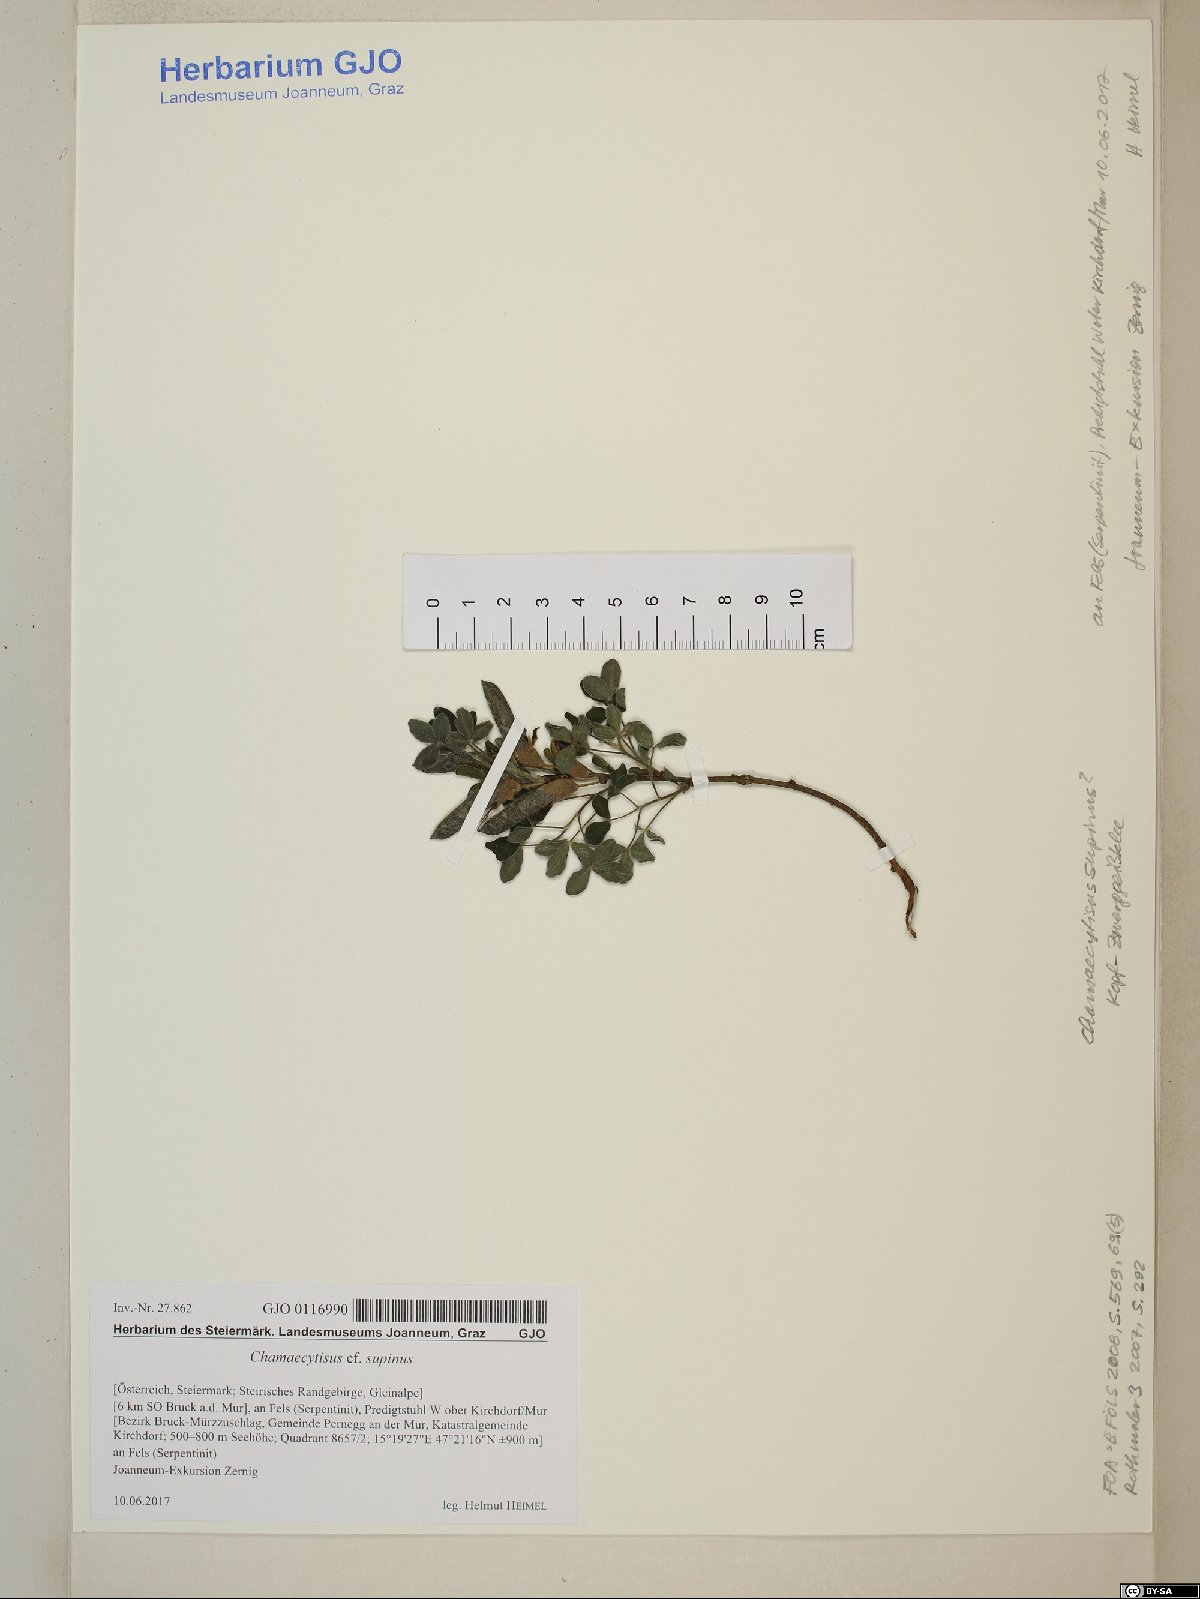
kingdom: Plantae
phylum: Tracheophyta
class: Magnoliopsida
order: Fabales
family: Fabaceae
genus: Chamaecytisus
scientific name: Chamaecytisus supinus
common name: Clustered broom
